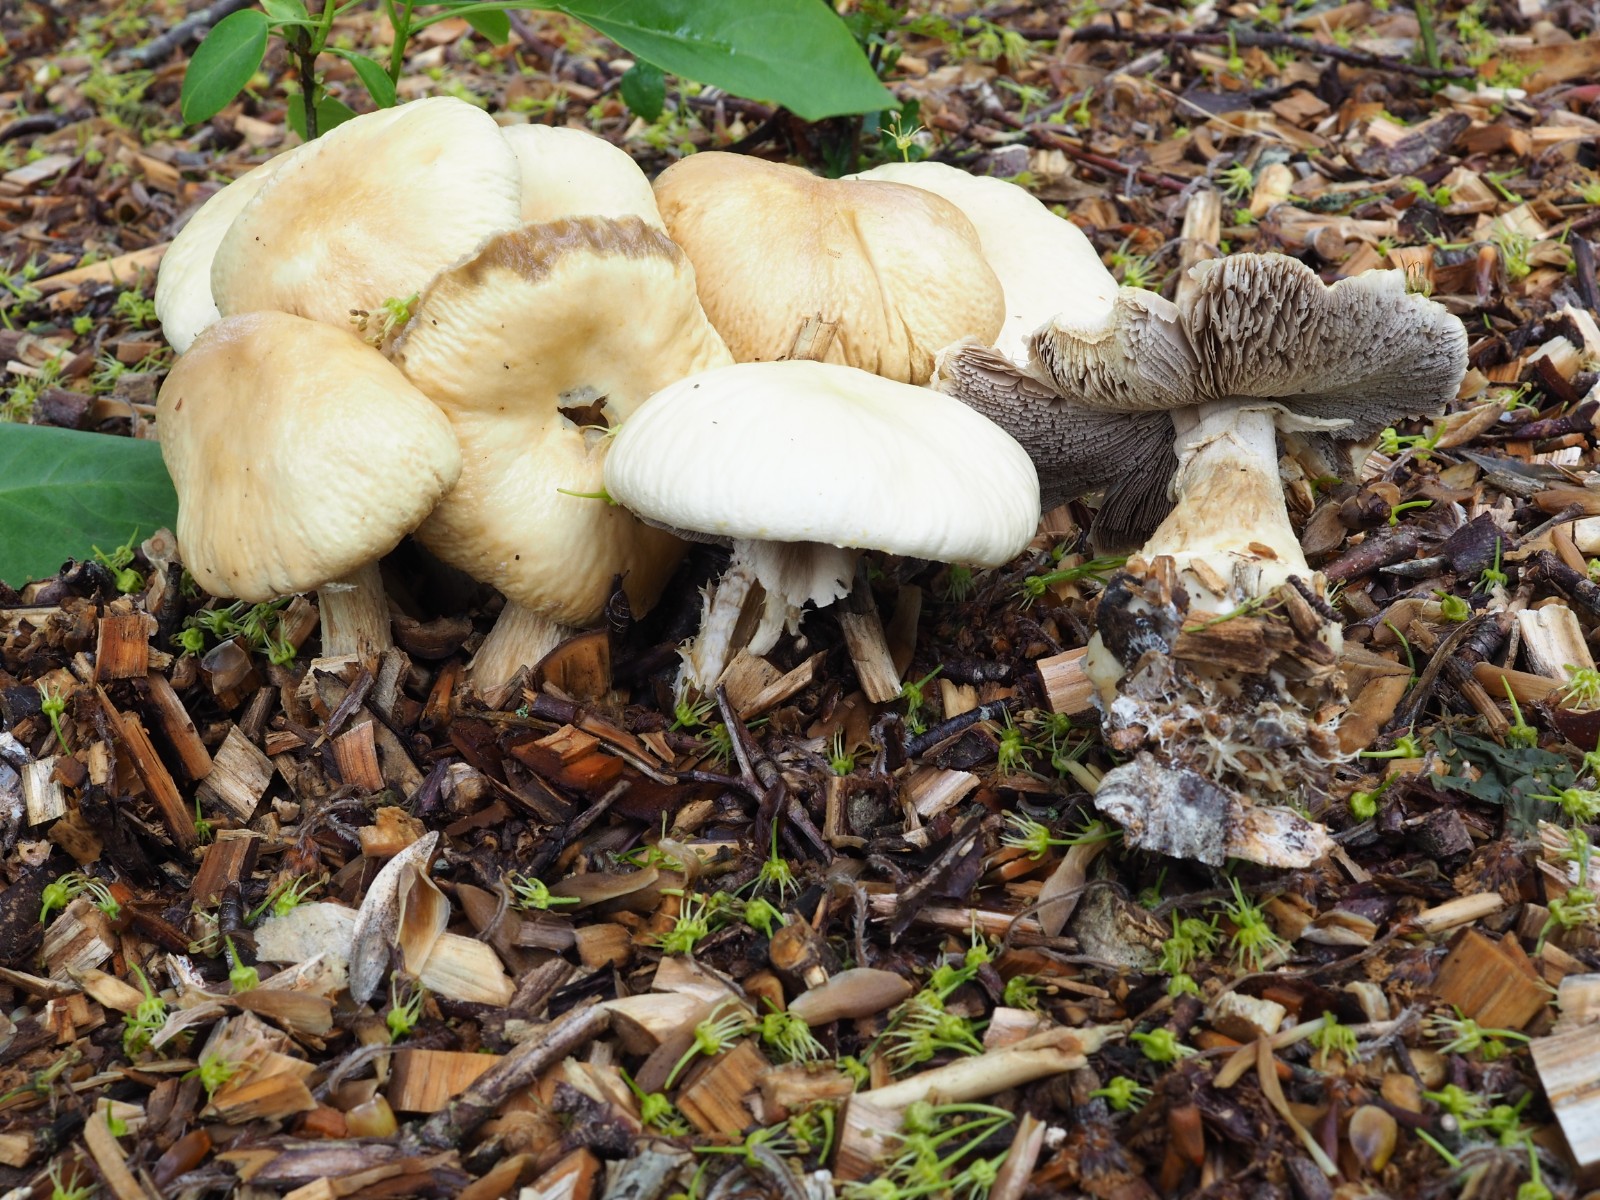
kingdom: Fungi
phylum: Basidiomycota
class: Agaricomycetes
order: Agaricales
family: Strophariaceae
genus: Agrocybe
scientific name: Agrocybe rivulosa
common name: året agerhat
